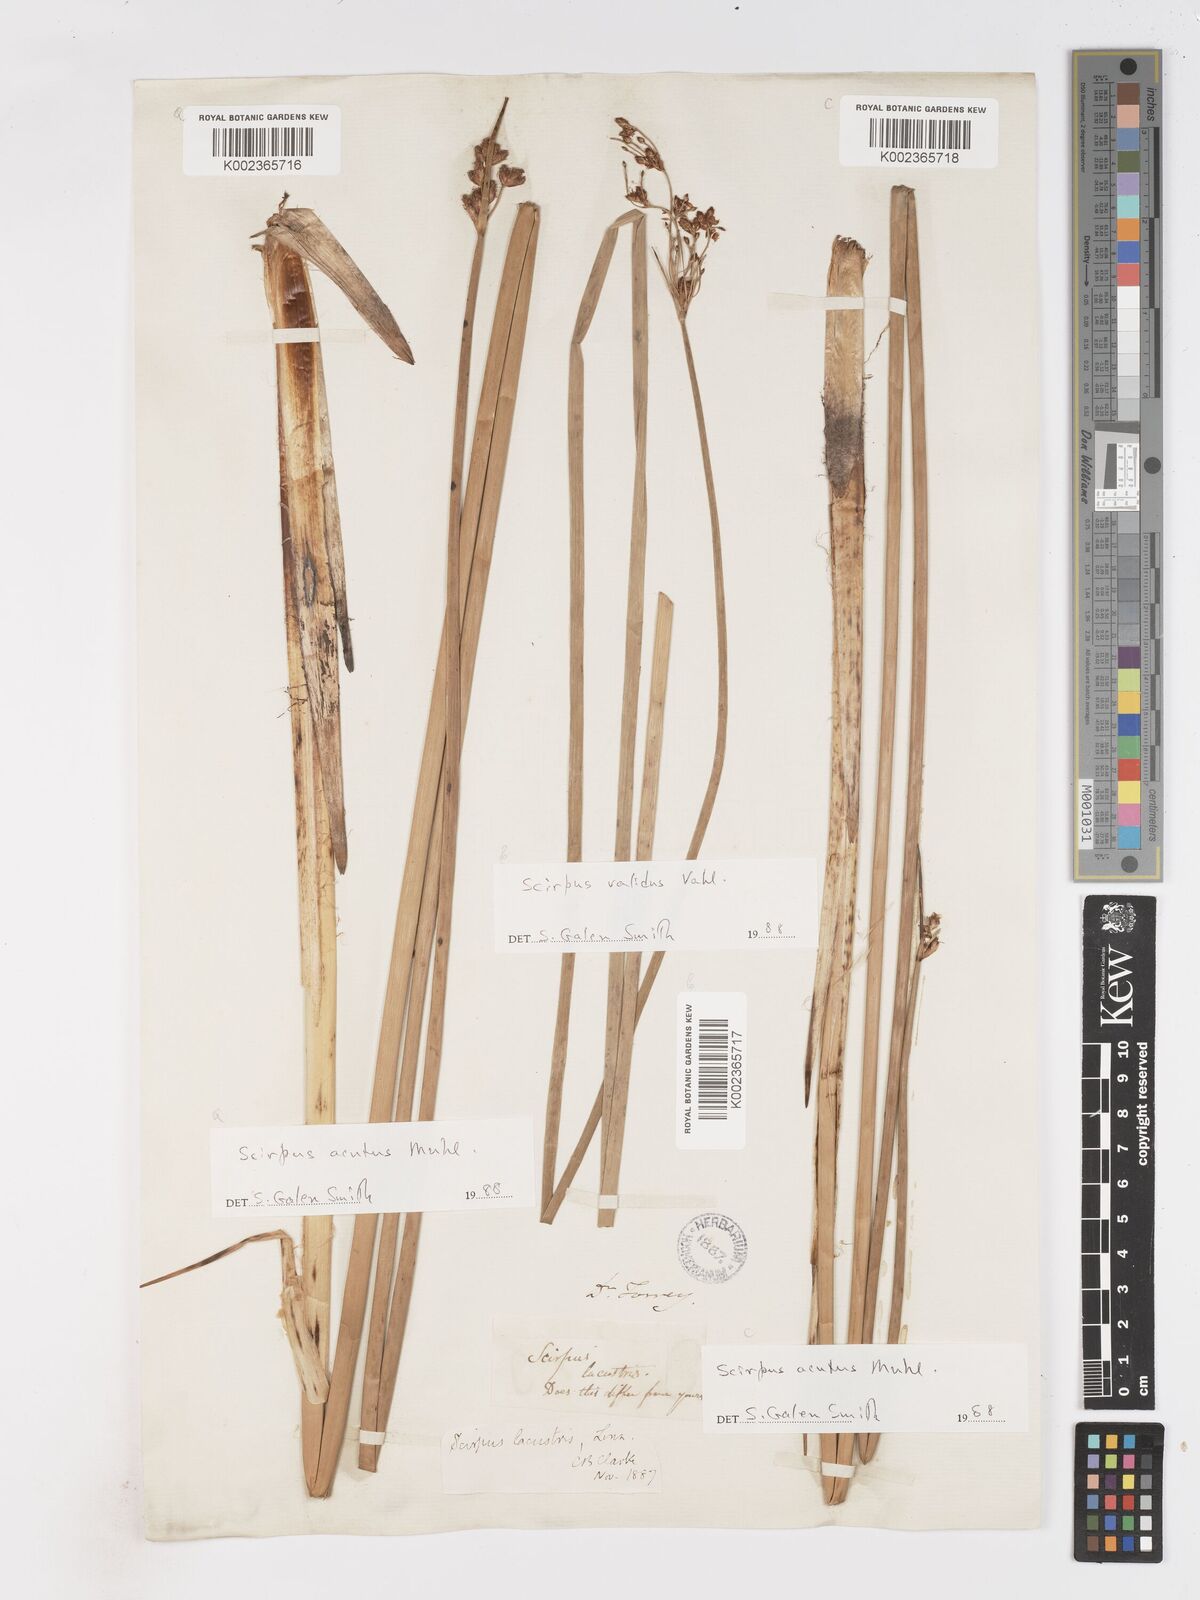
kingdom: Plantae
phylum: Tracheophyta
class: Liliopsida
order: Poales
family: Cyperaceae
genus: Schoenoplectus
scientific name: Schoenoplectus acutus
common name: Hardstem bulrush
